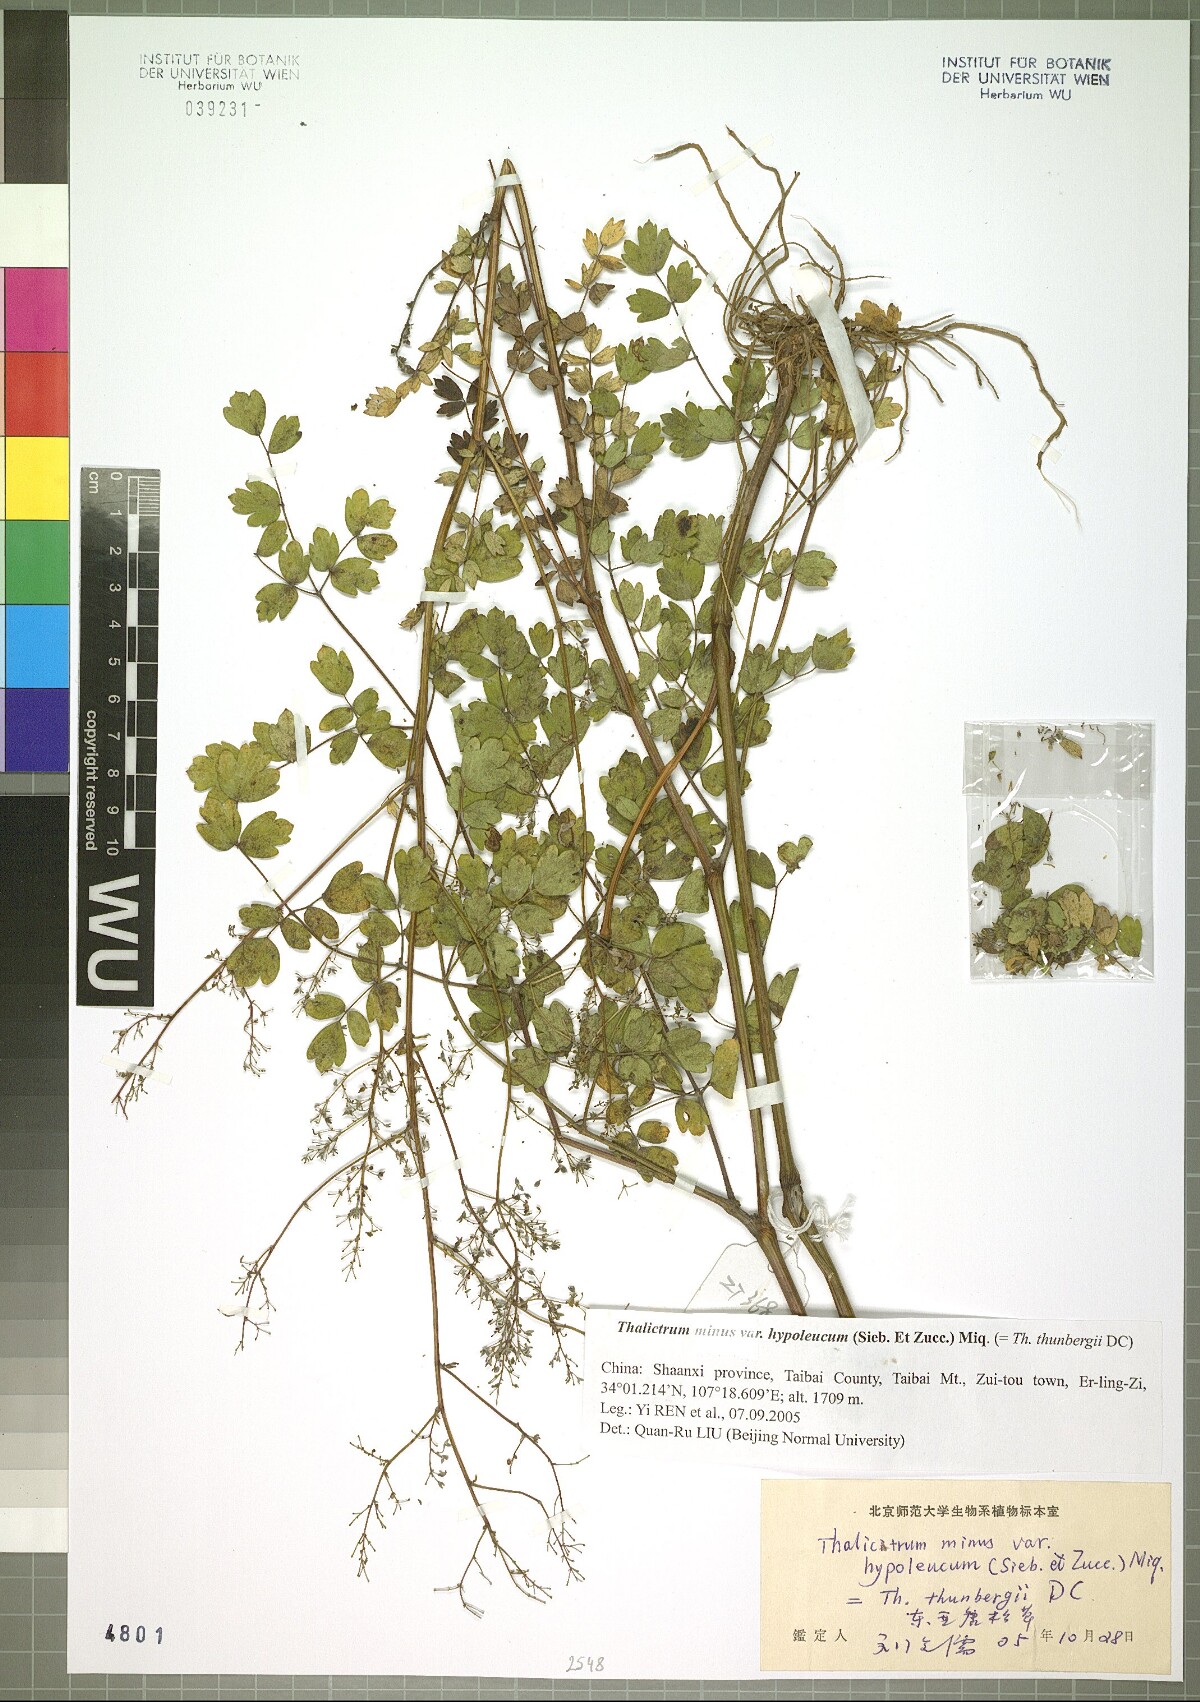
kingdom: Plantae
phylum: Tracheophyta
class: Magnoliopsida
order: Ranunculales
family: Ranunculaceae
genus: Thalictrum
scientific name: Thalictrum minus
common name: Lesser meadow-rue
